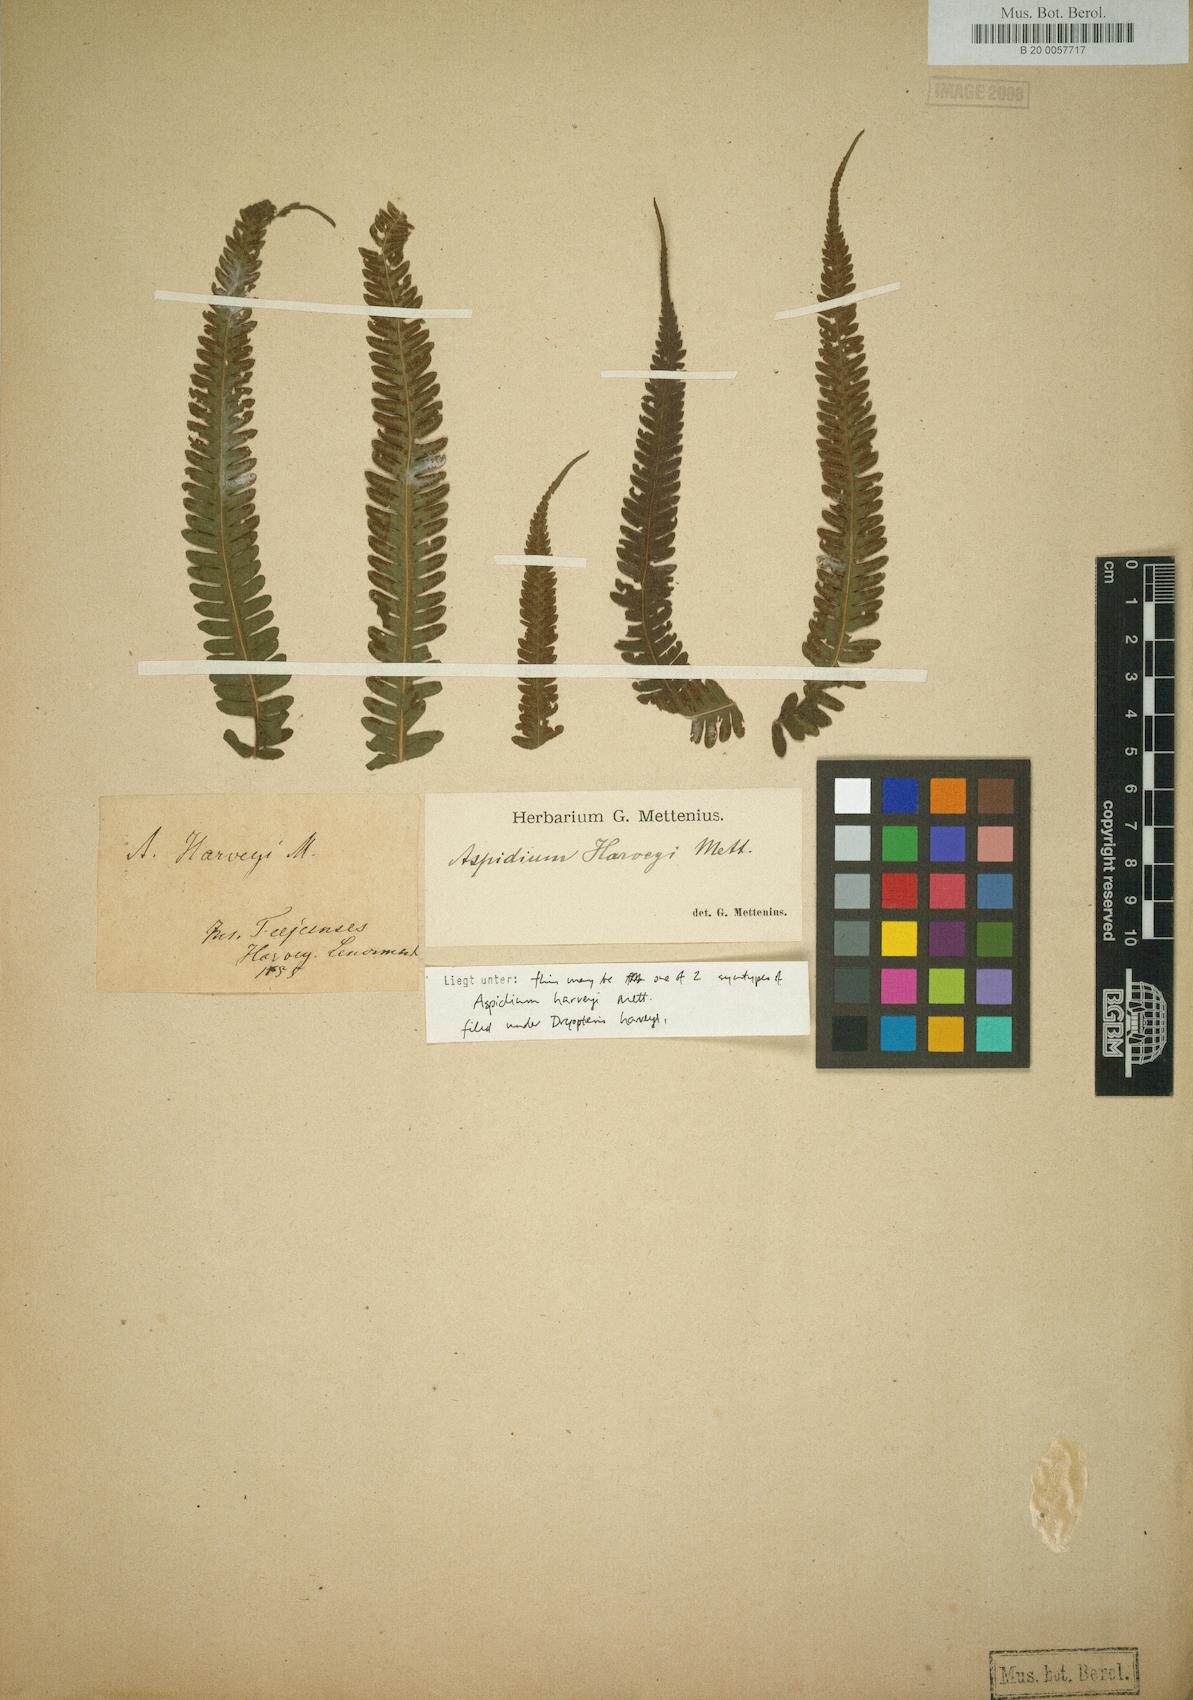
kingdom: Plantae
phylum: Tracheophyta
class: Polypodiopsida
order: Polypodiales
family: Thelypteridaceae
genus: Christella
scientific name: Christella harveyi
